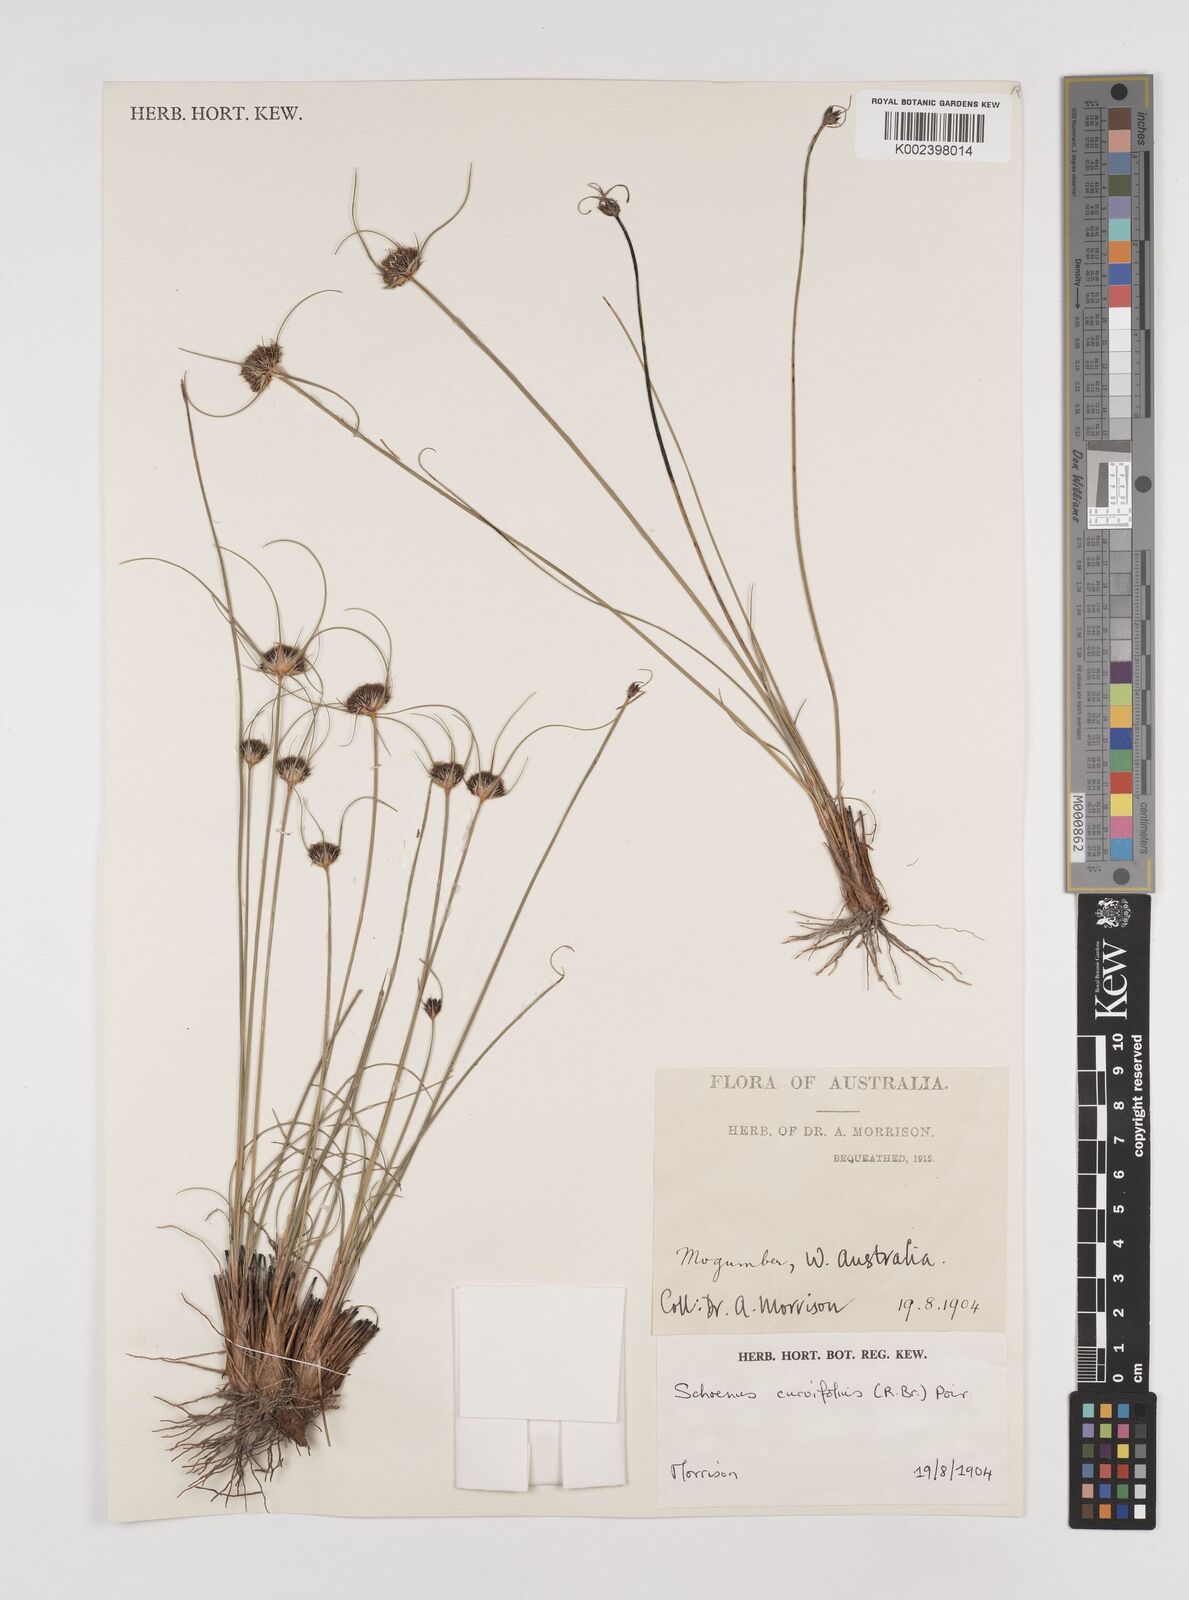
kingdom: Plantae
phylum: Tracheophyta
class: Liliopsida
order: Poales
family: Cyperaceae
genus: Schoenus
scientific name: Schoenus curvifolius
